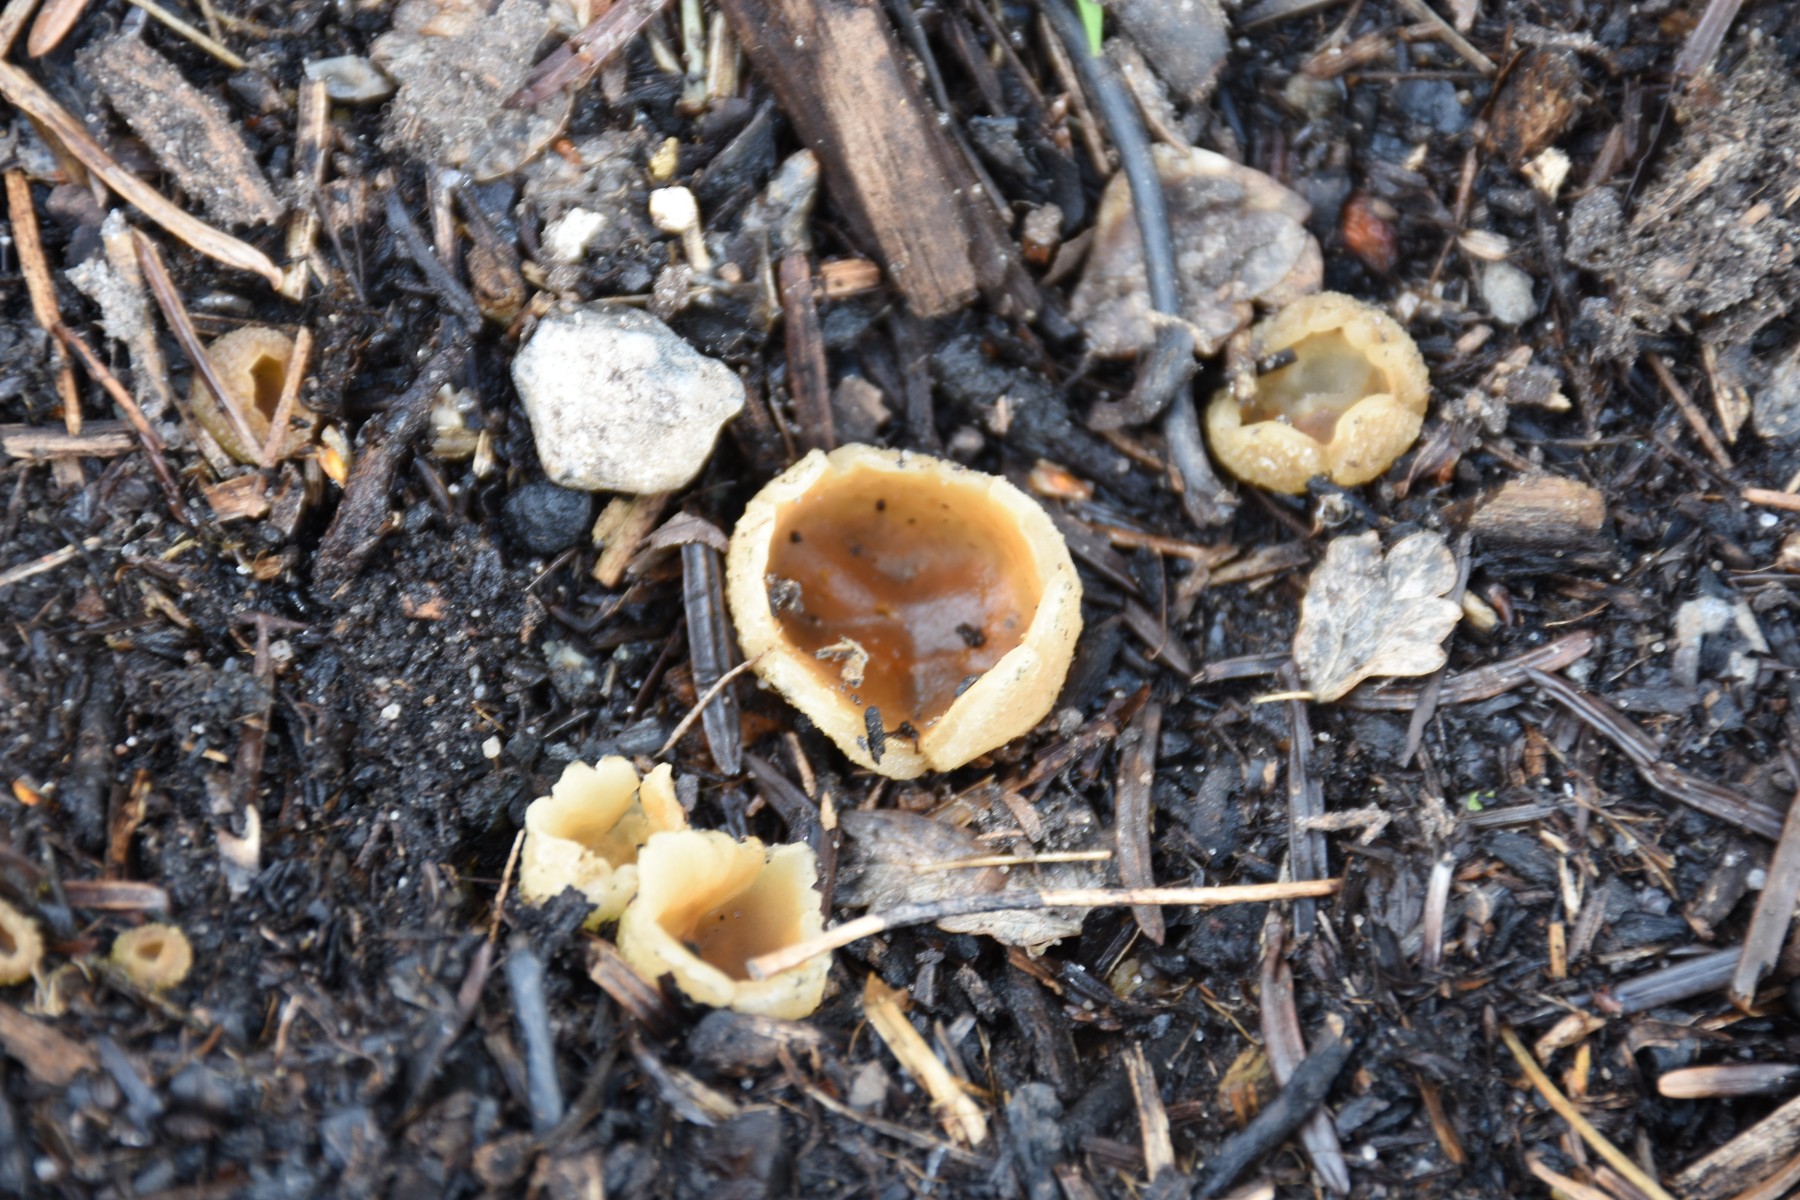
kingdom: Fungi
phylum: Ascomycota
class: Pezizomycetes
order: Pezizales
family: Pezizaceae
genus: Peziza
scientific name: Peziza
